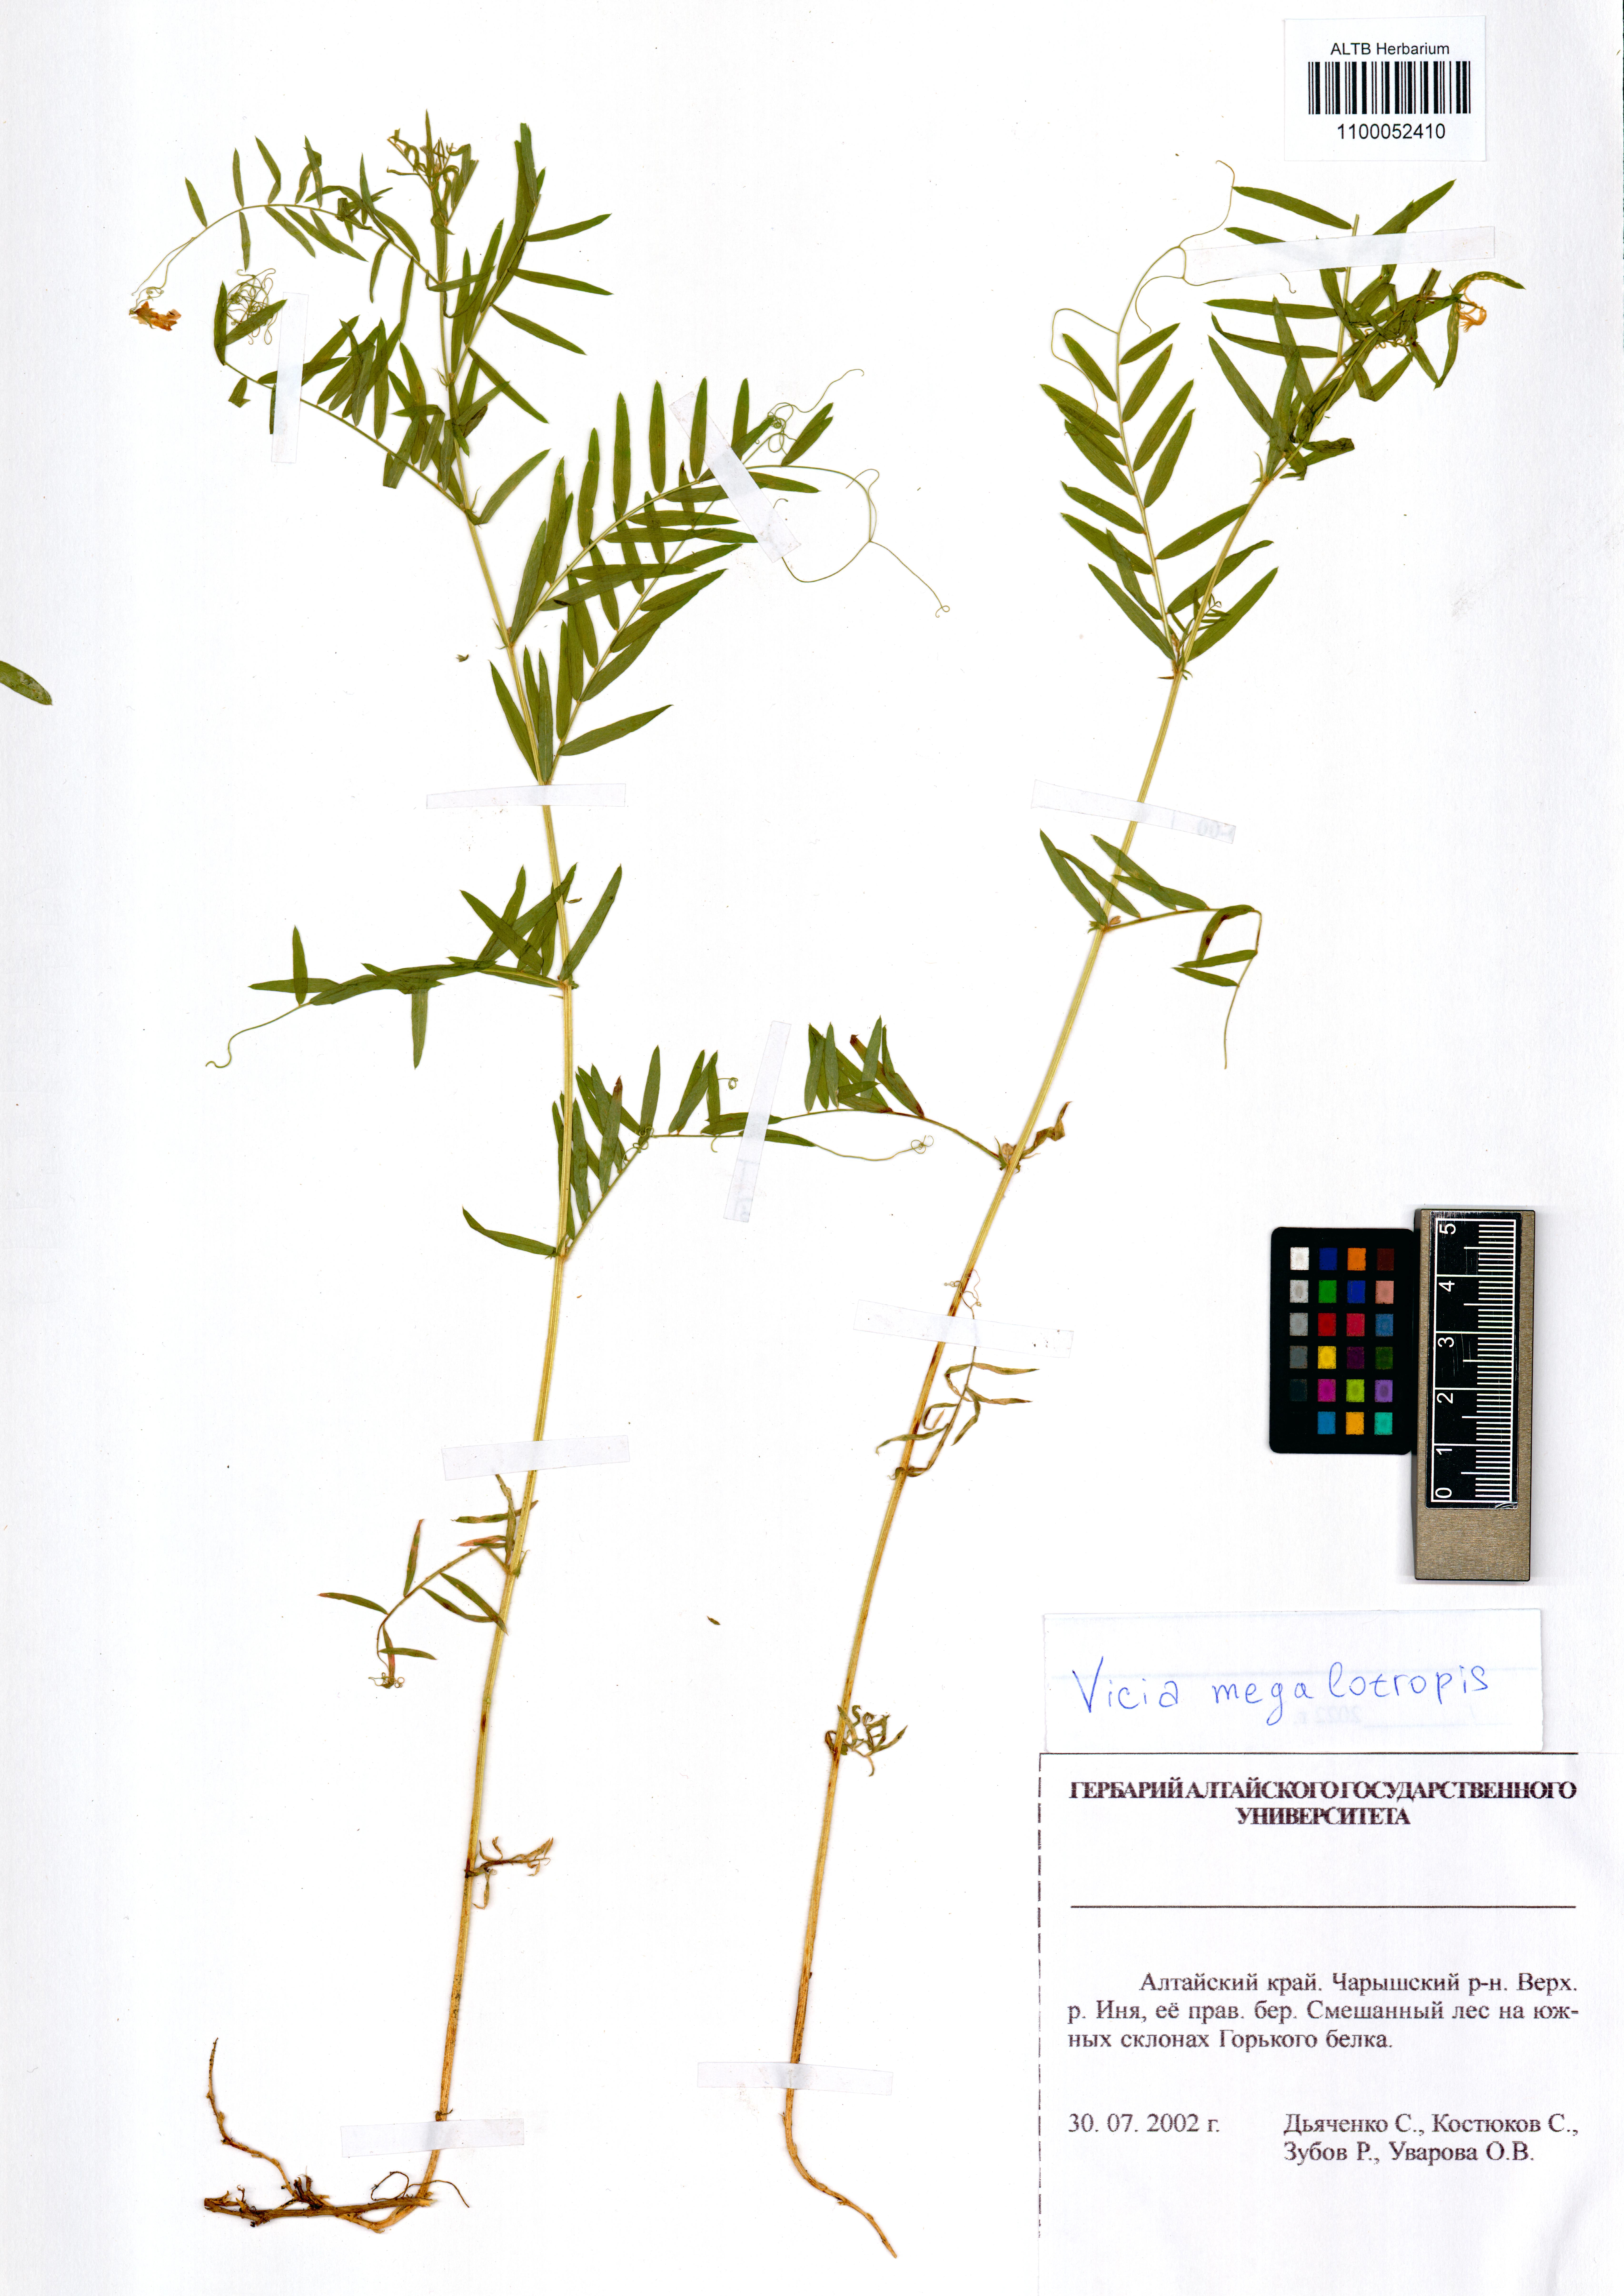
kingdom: Plantae
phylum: Tracheophyta
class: Magnoliopsida
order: Fabales
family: Fabaceae
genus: Vicia
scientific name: Vicia megalotropis
